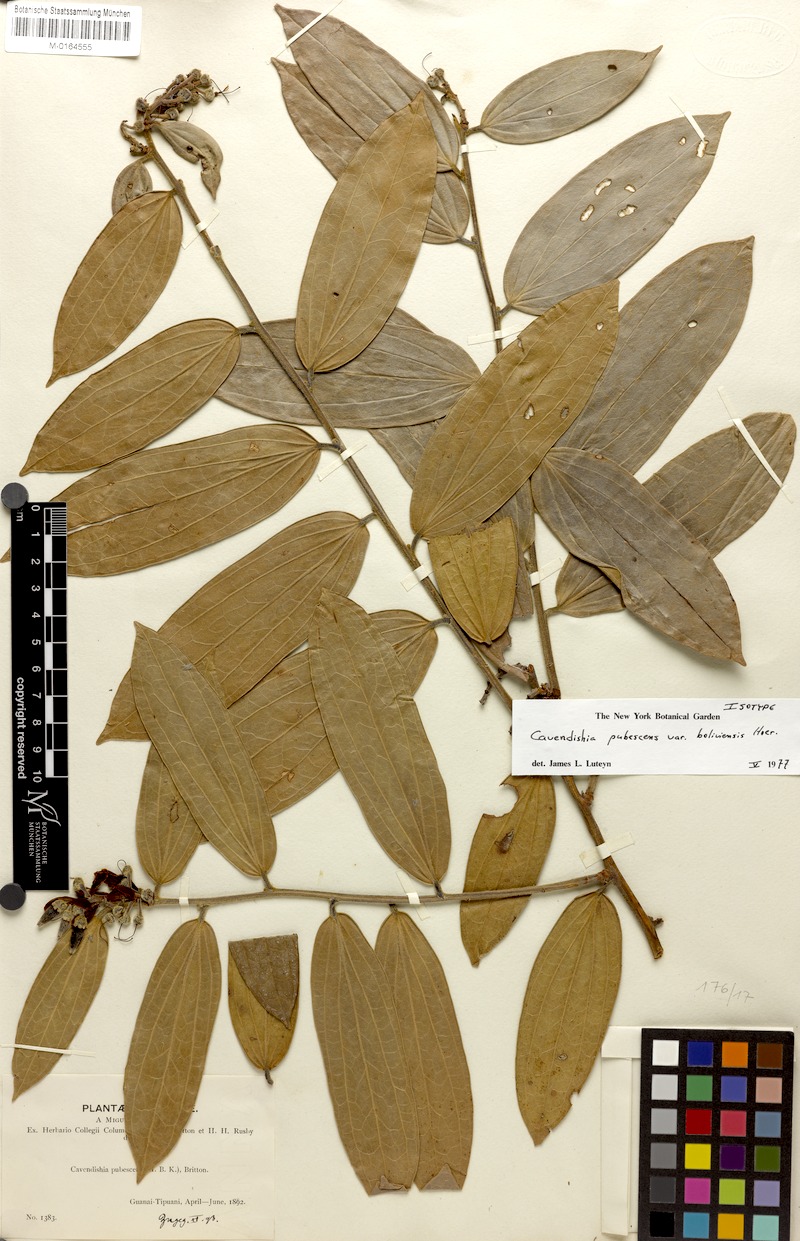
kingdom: Plantae
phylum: Tracheophyta
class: Magnoliopsida
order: Ericales
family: Ericaceae
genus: Cavendishia
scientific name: Cavendishia pubescens
